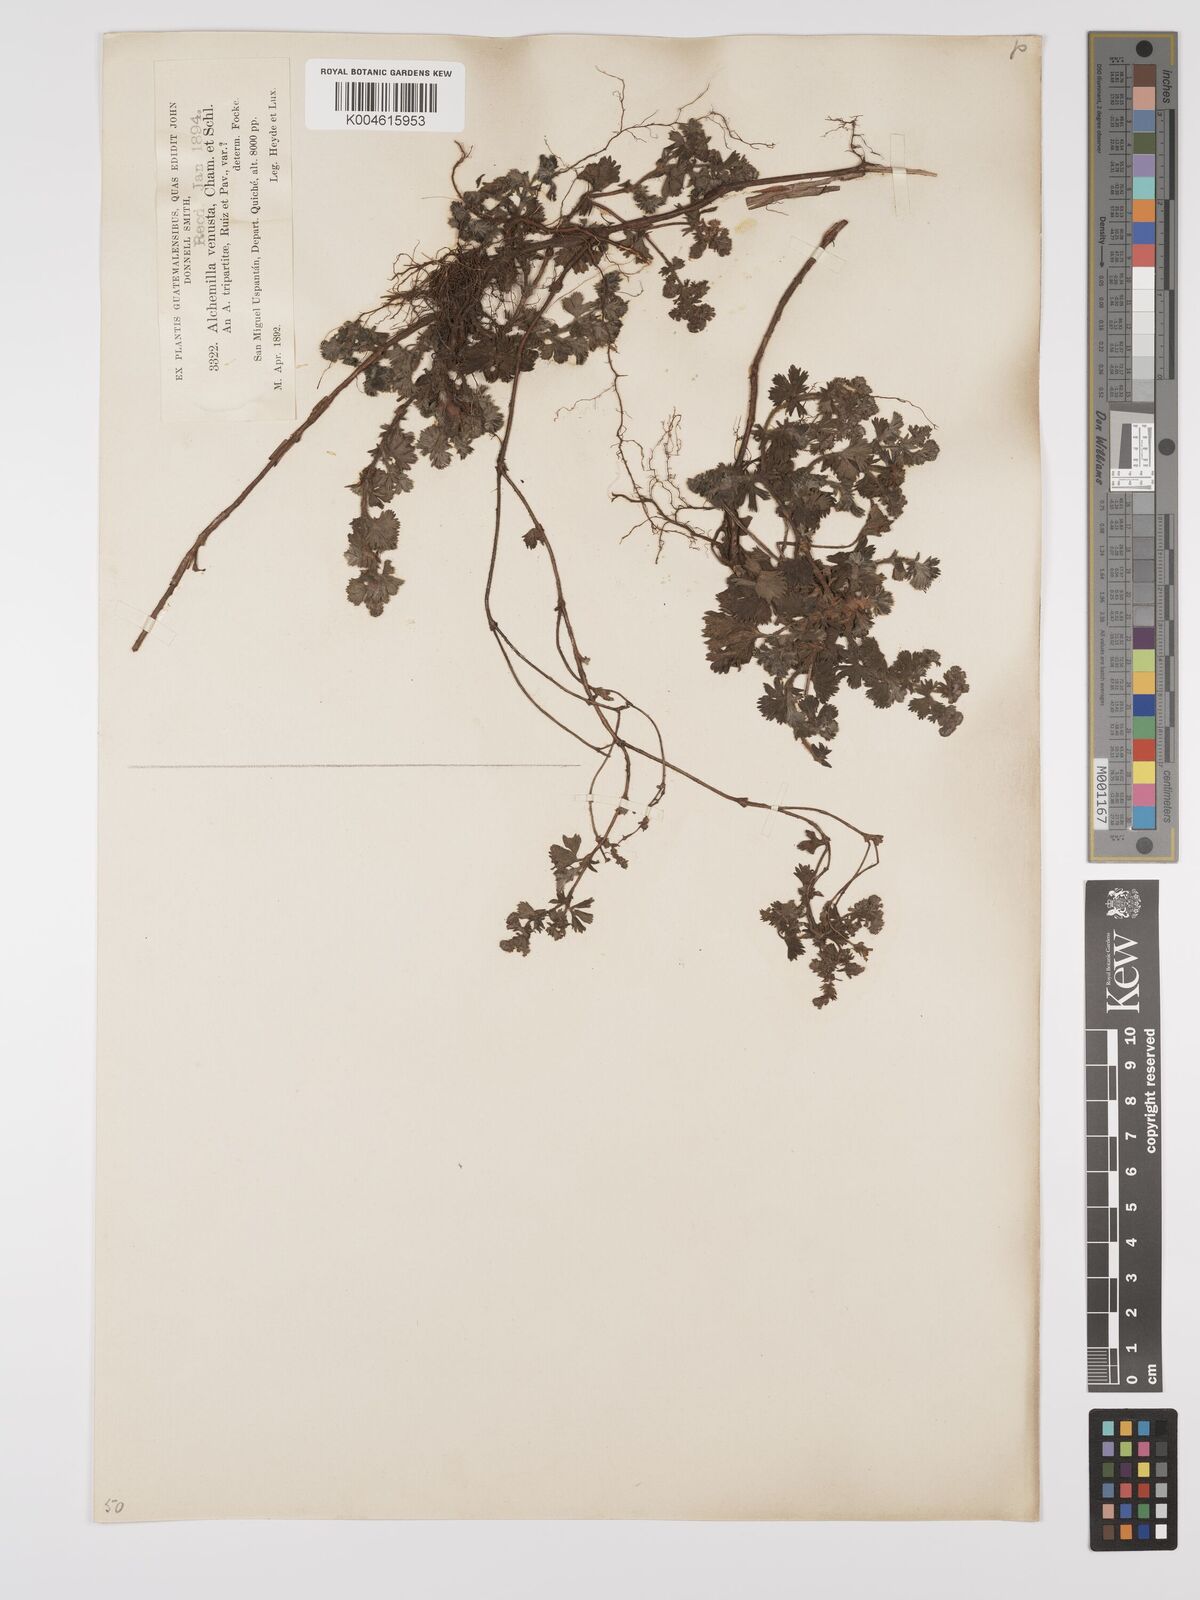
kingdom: Plantae
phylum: Tracheophyta
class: Magnoliopsida
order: Rosales
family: Rosaceae
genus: Lachemilla
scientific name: Lachemilla venusta
